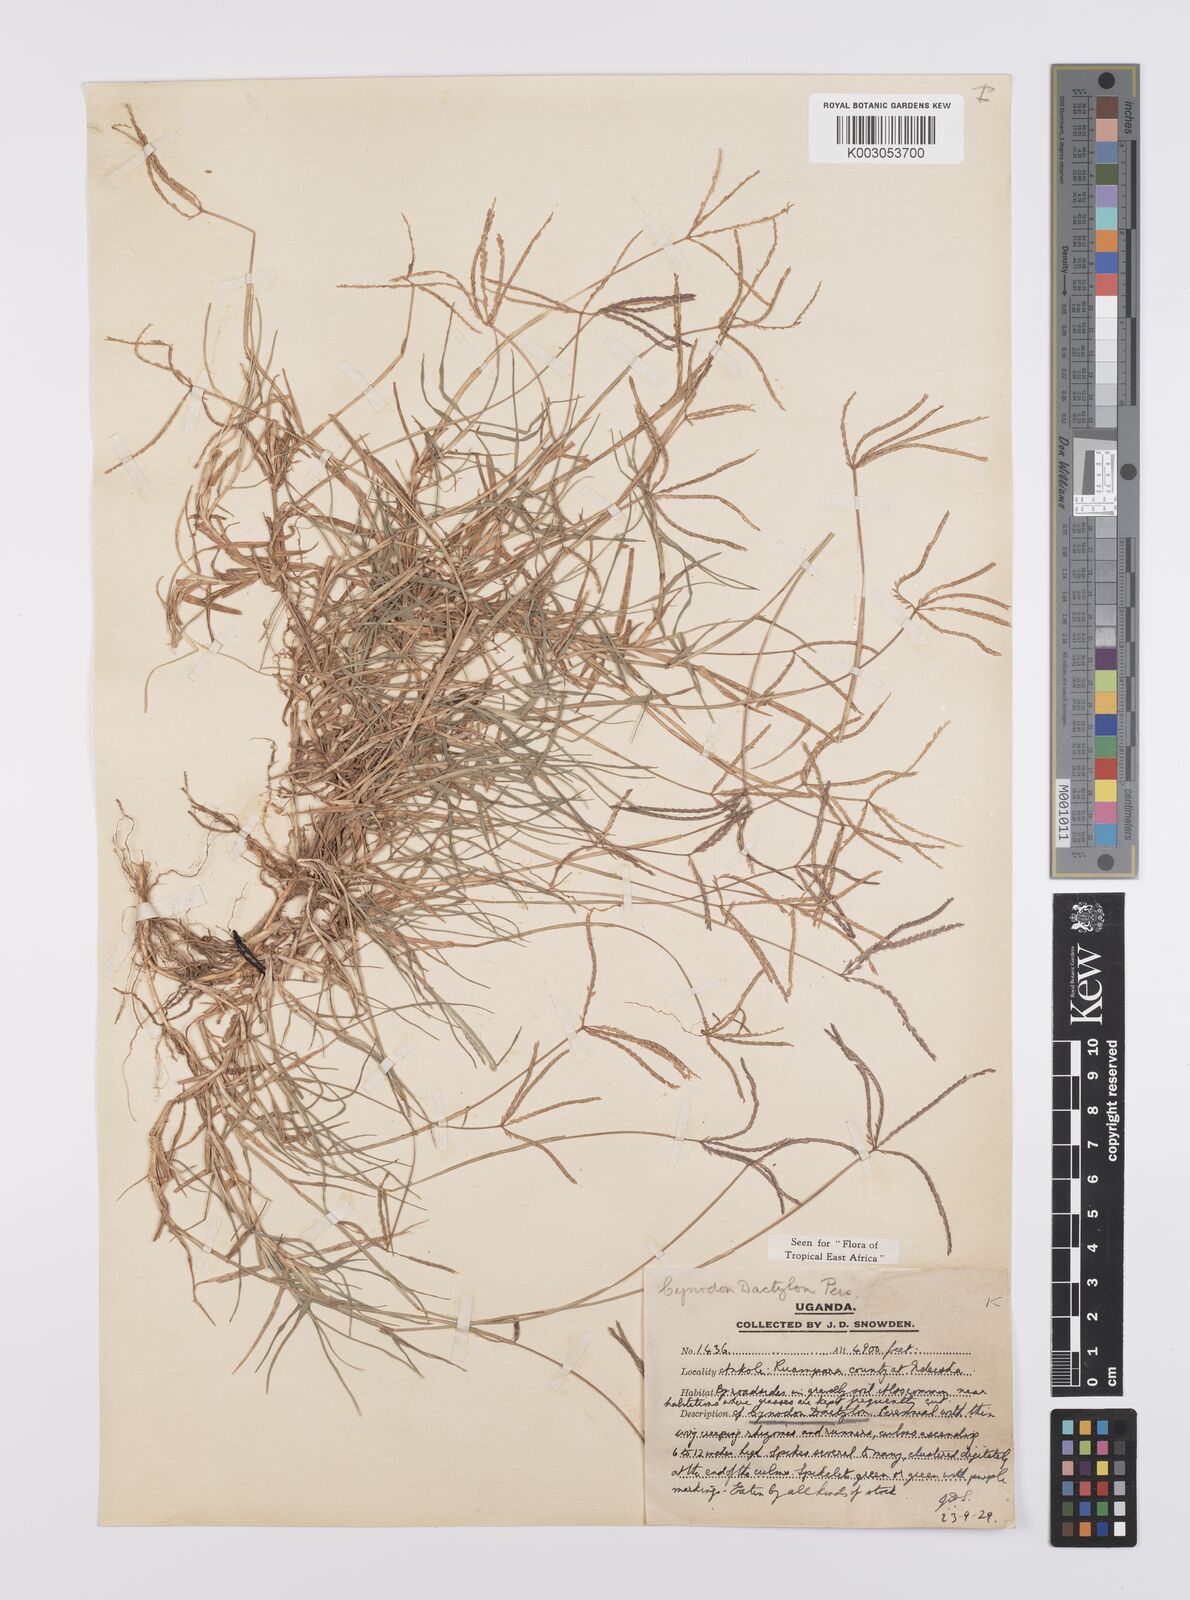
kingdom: Plantae
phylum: Tracheophyta
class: Liliopsida
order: Poales
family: Poaceae
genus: Cynodon
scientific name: Cynodon dactylon
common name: Bermuda grass
